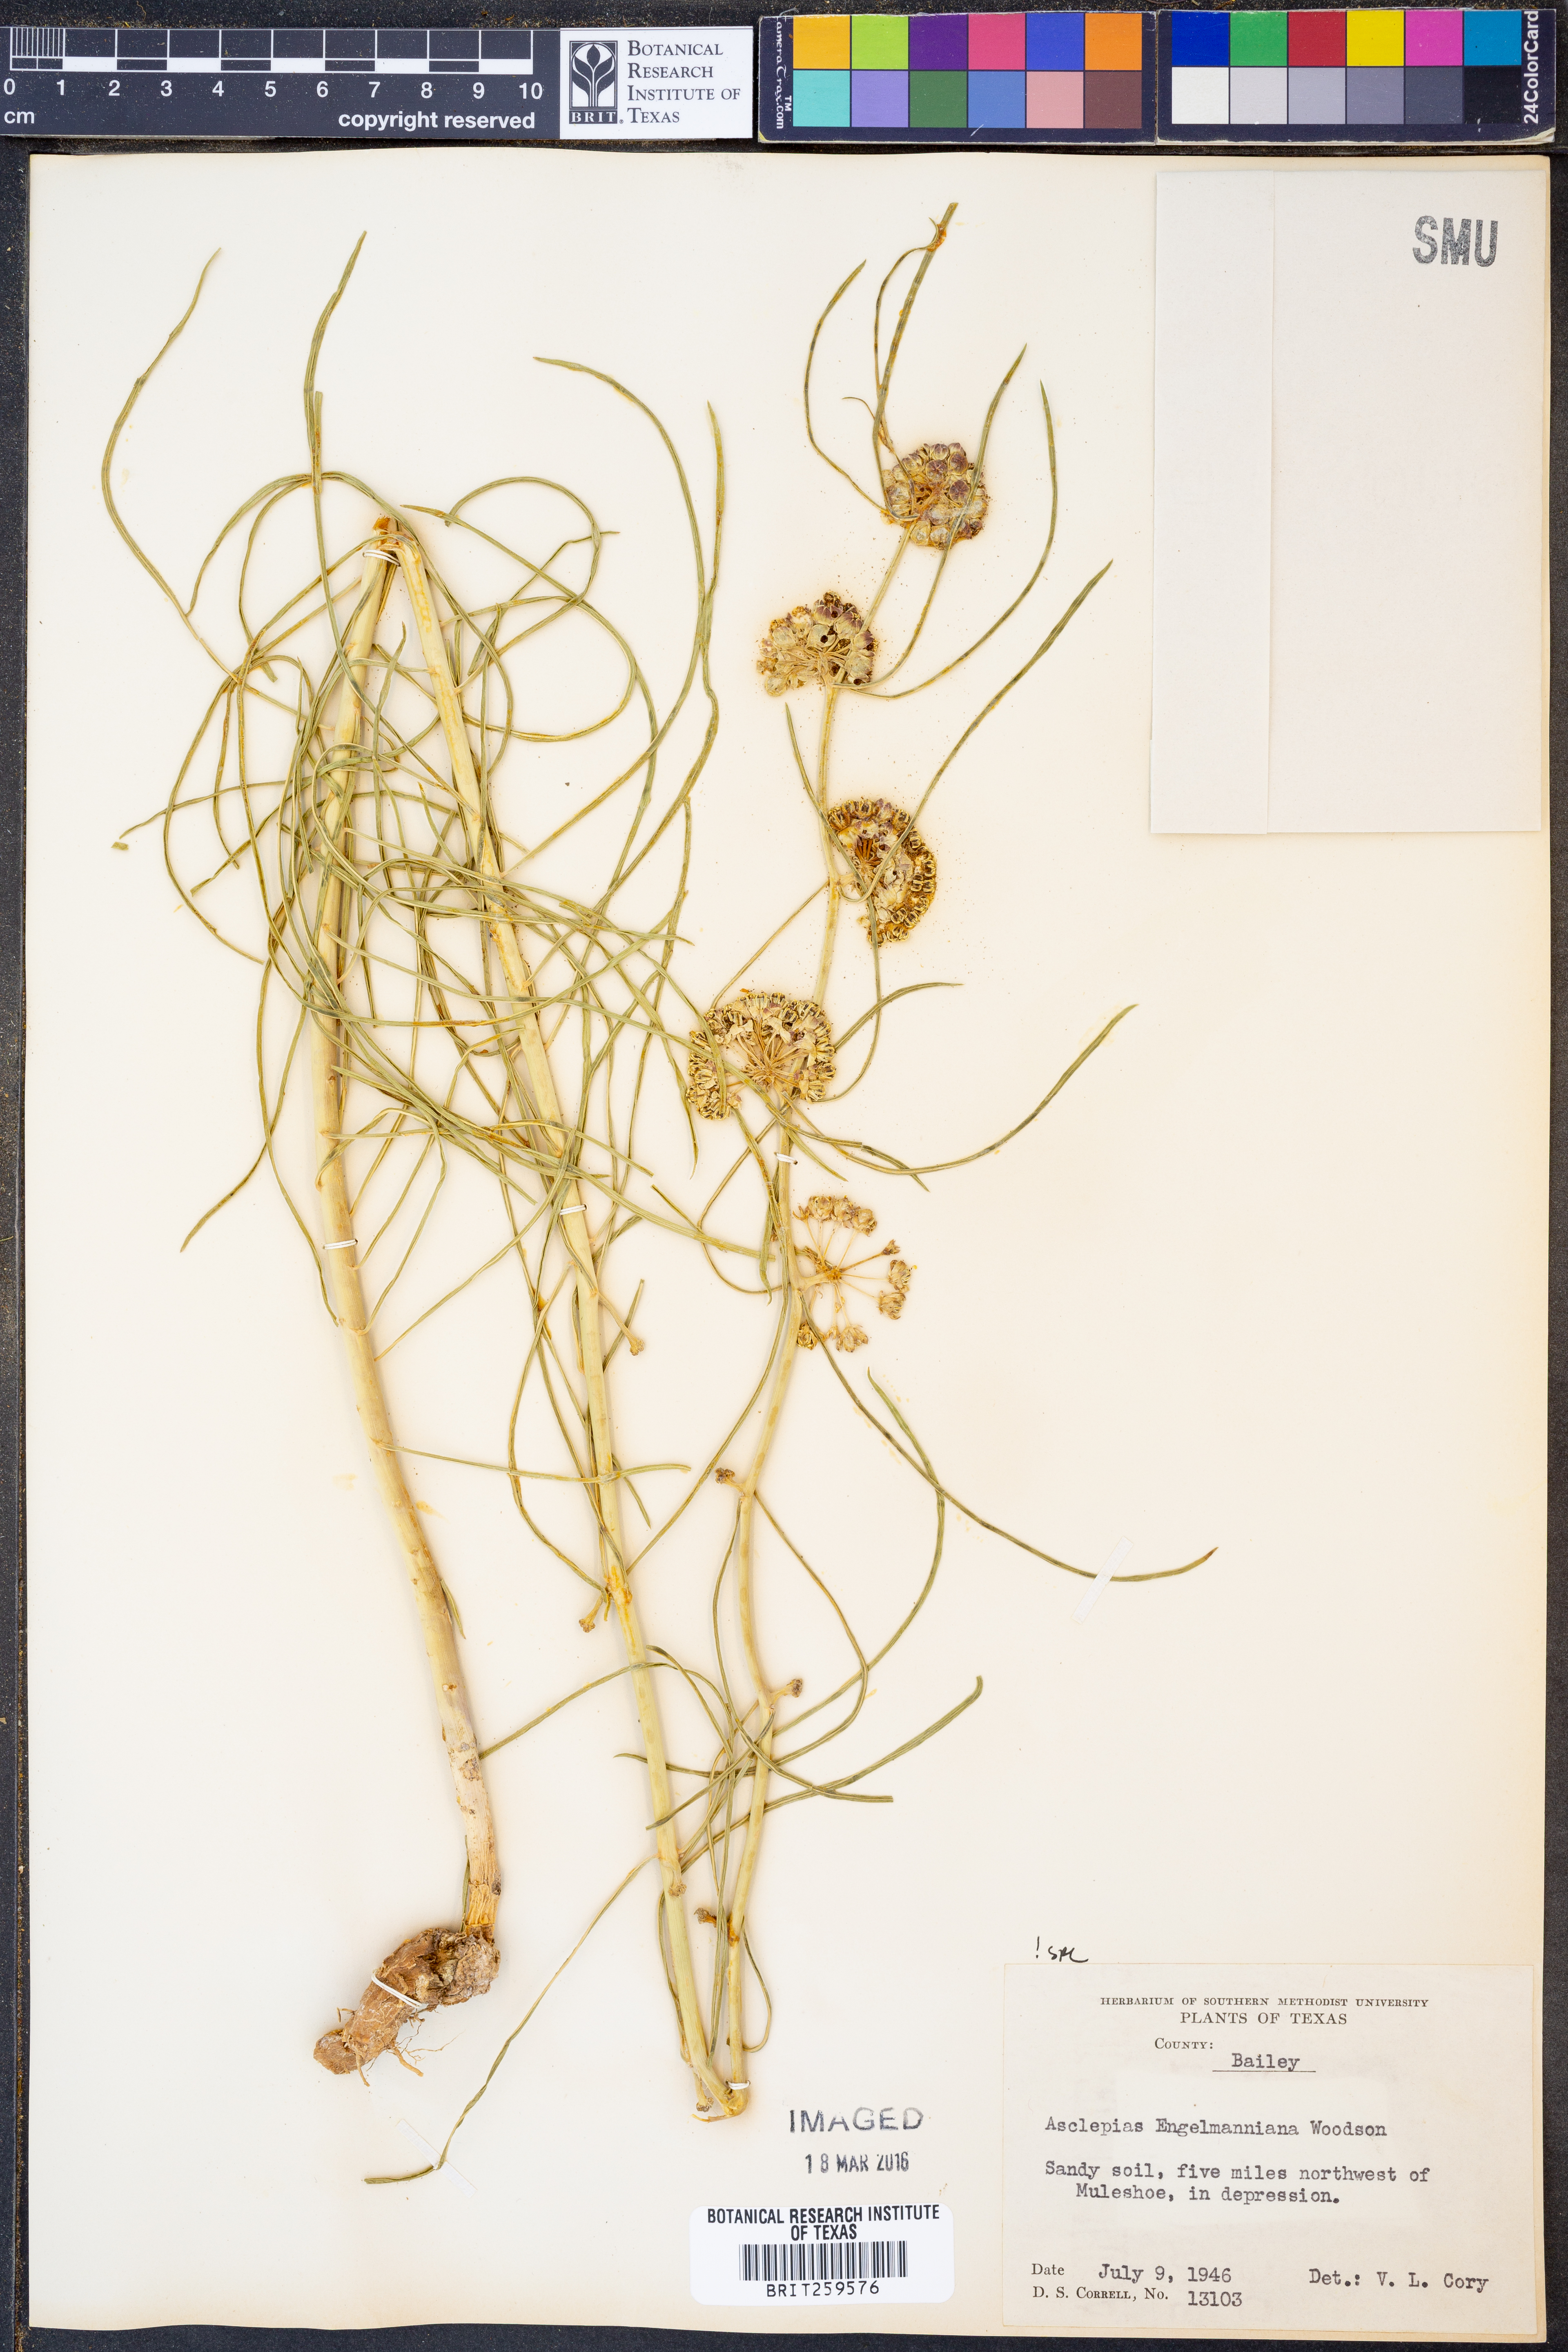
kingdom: Plantae
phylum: Tracheophyta
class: Magnoliopsida
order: Gentianales
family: Apocynaceae
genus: Asclepias
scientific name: Asclepias engelmanniana
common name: Engelmann's milkweed
